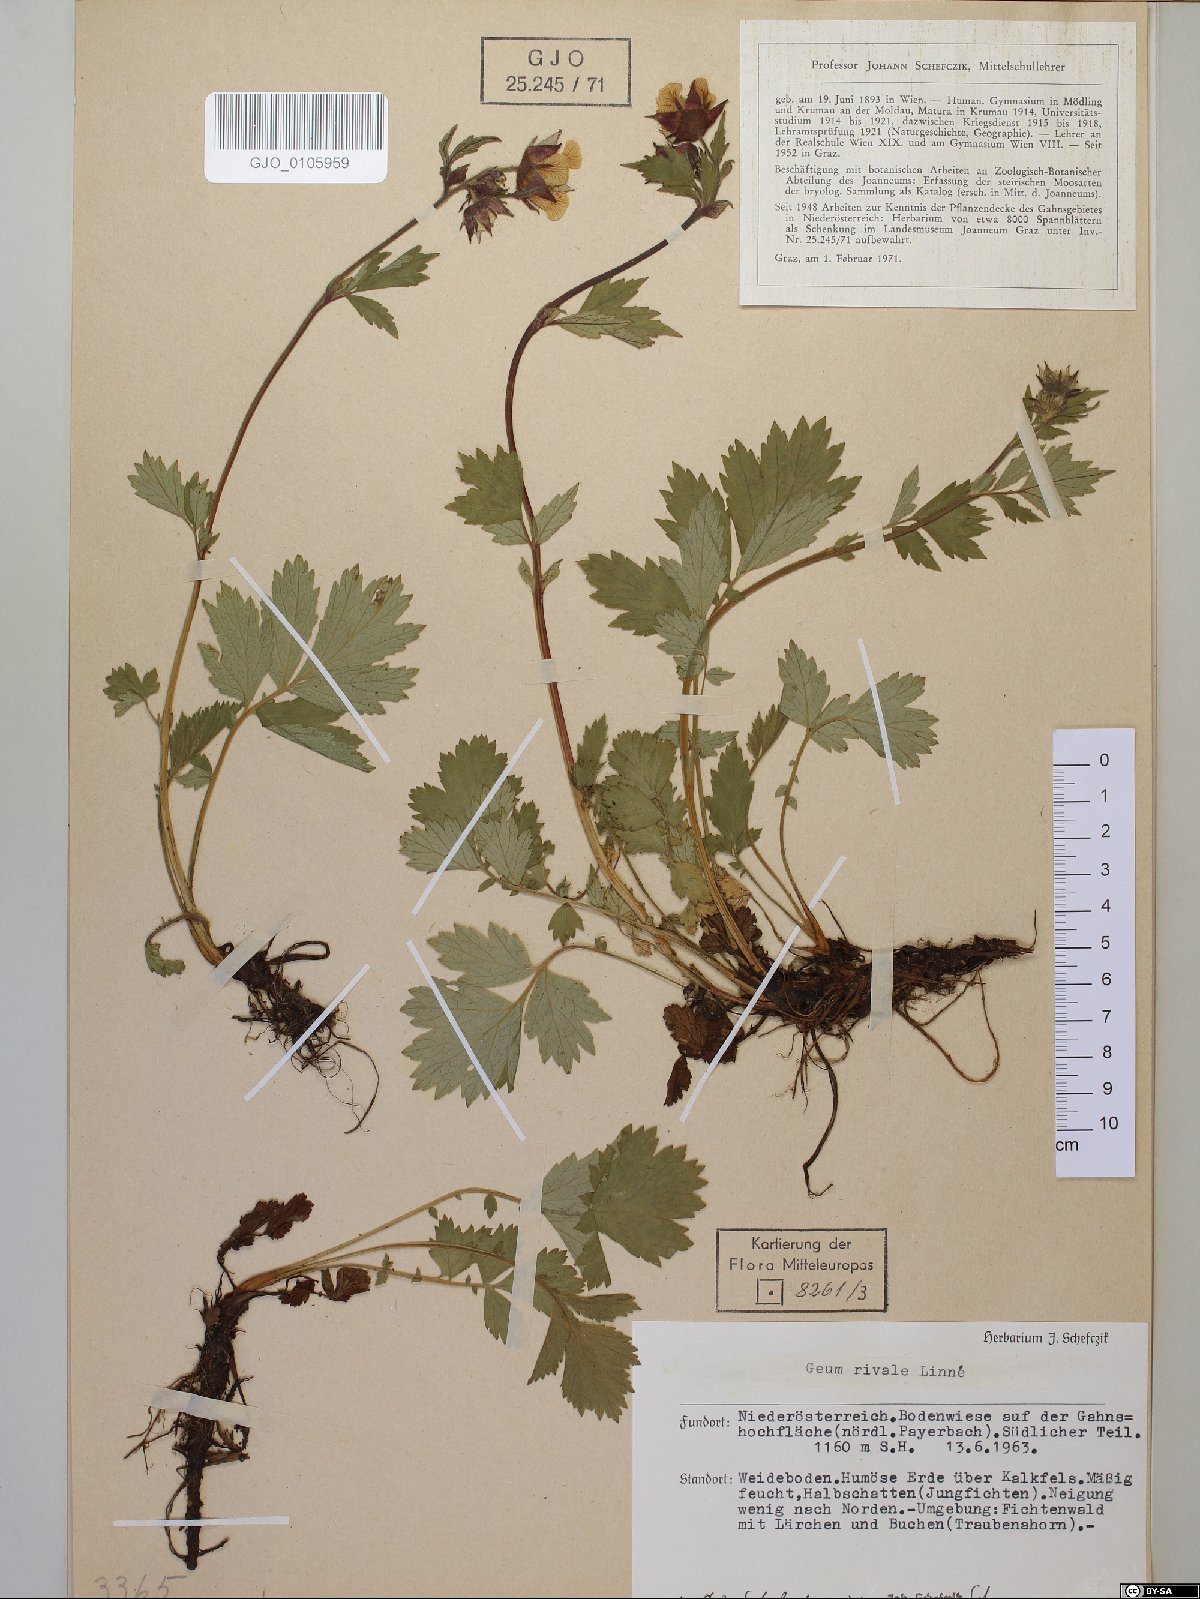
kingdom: Plantae
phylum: Tracheophyta
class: Magnoliopsida
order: Rosales
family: Rosaceae
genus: Geum
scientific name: Geum rivale
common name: Water avens
